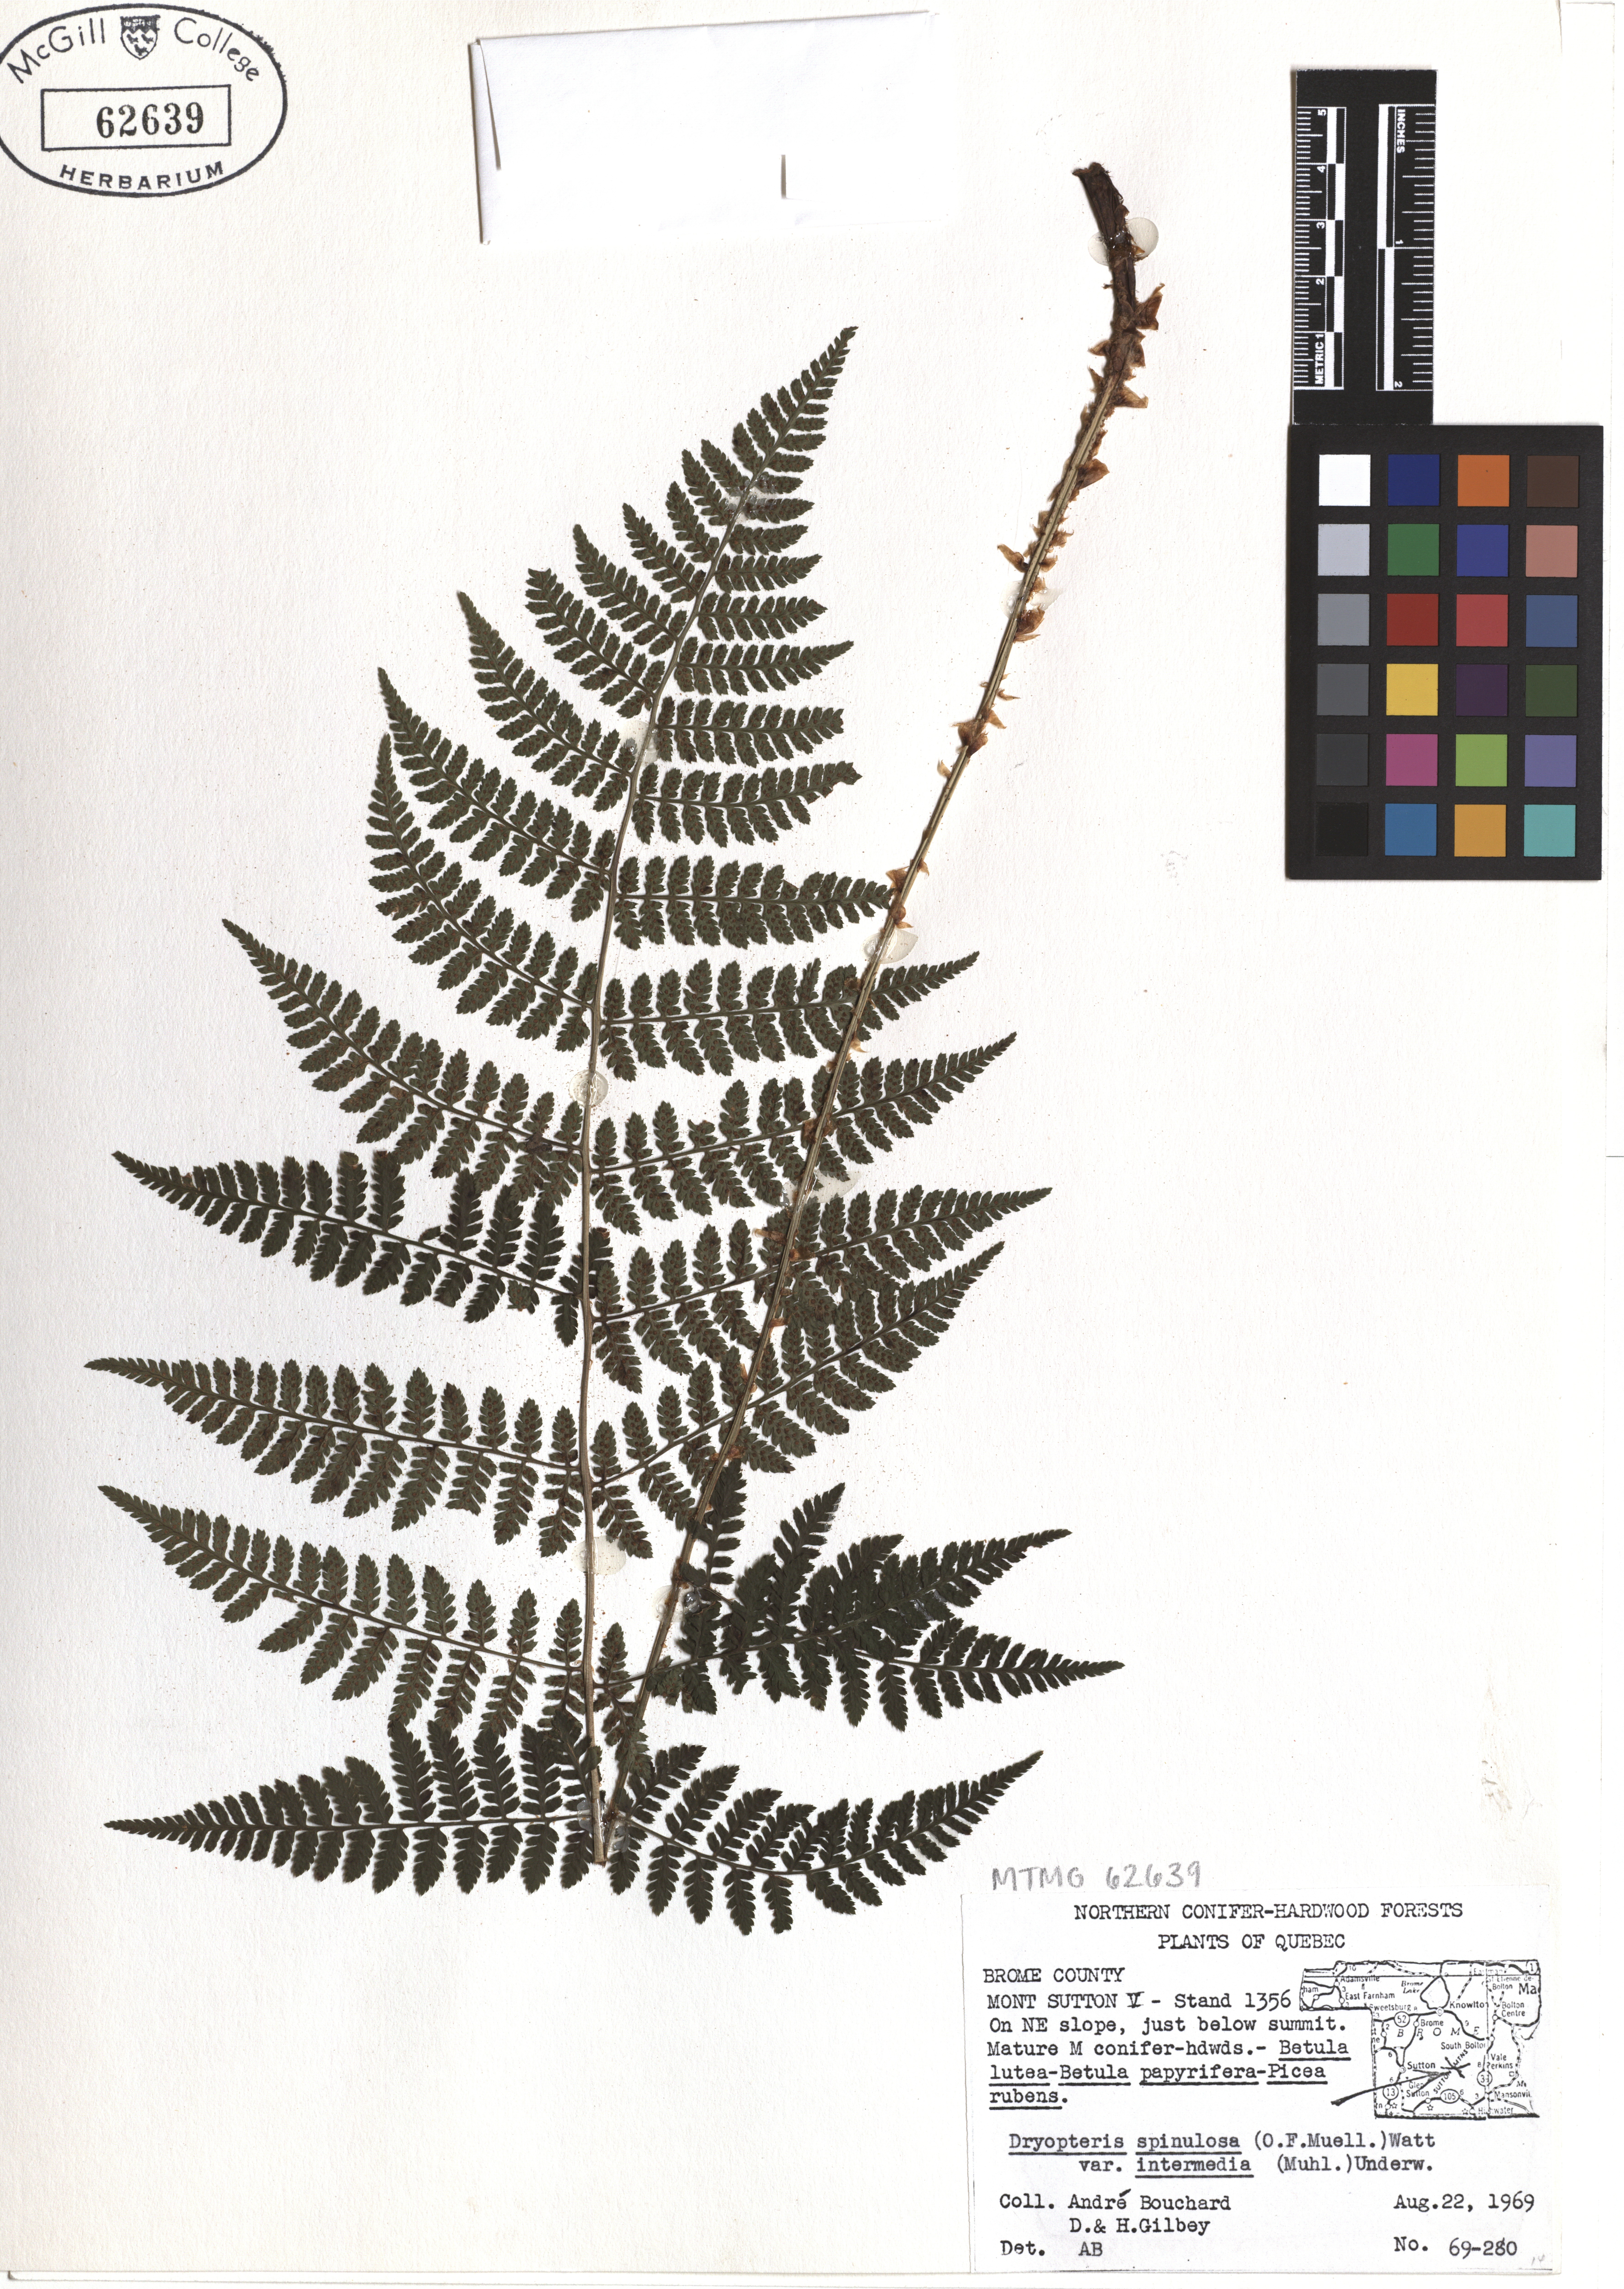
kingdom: Plantae
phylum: Tracheophyta
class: Polypodiopsida
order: Polypodiales
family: Dryopteridaceae
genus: Dryopteris
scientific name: Dryopteris intermedia
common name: Evergreen wood fern
